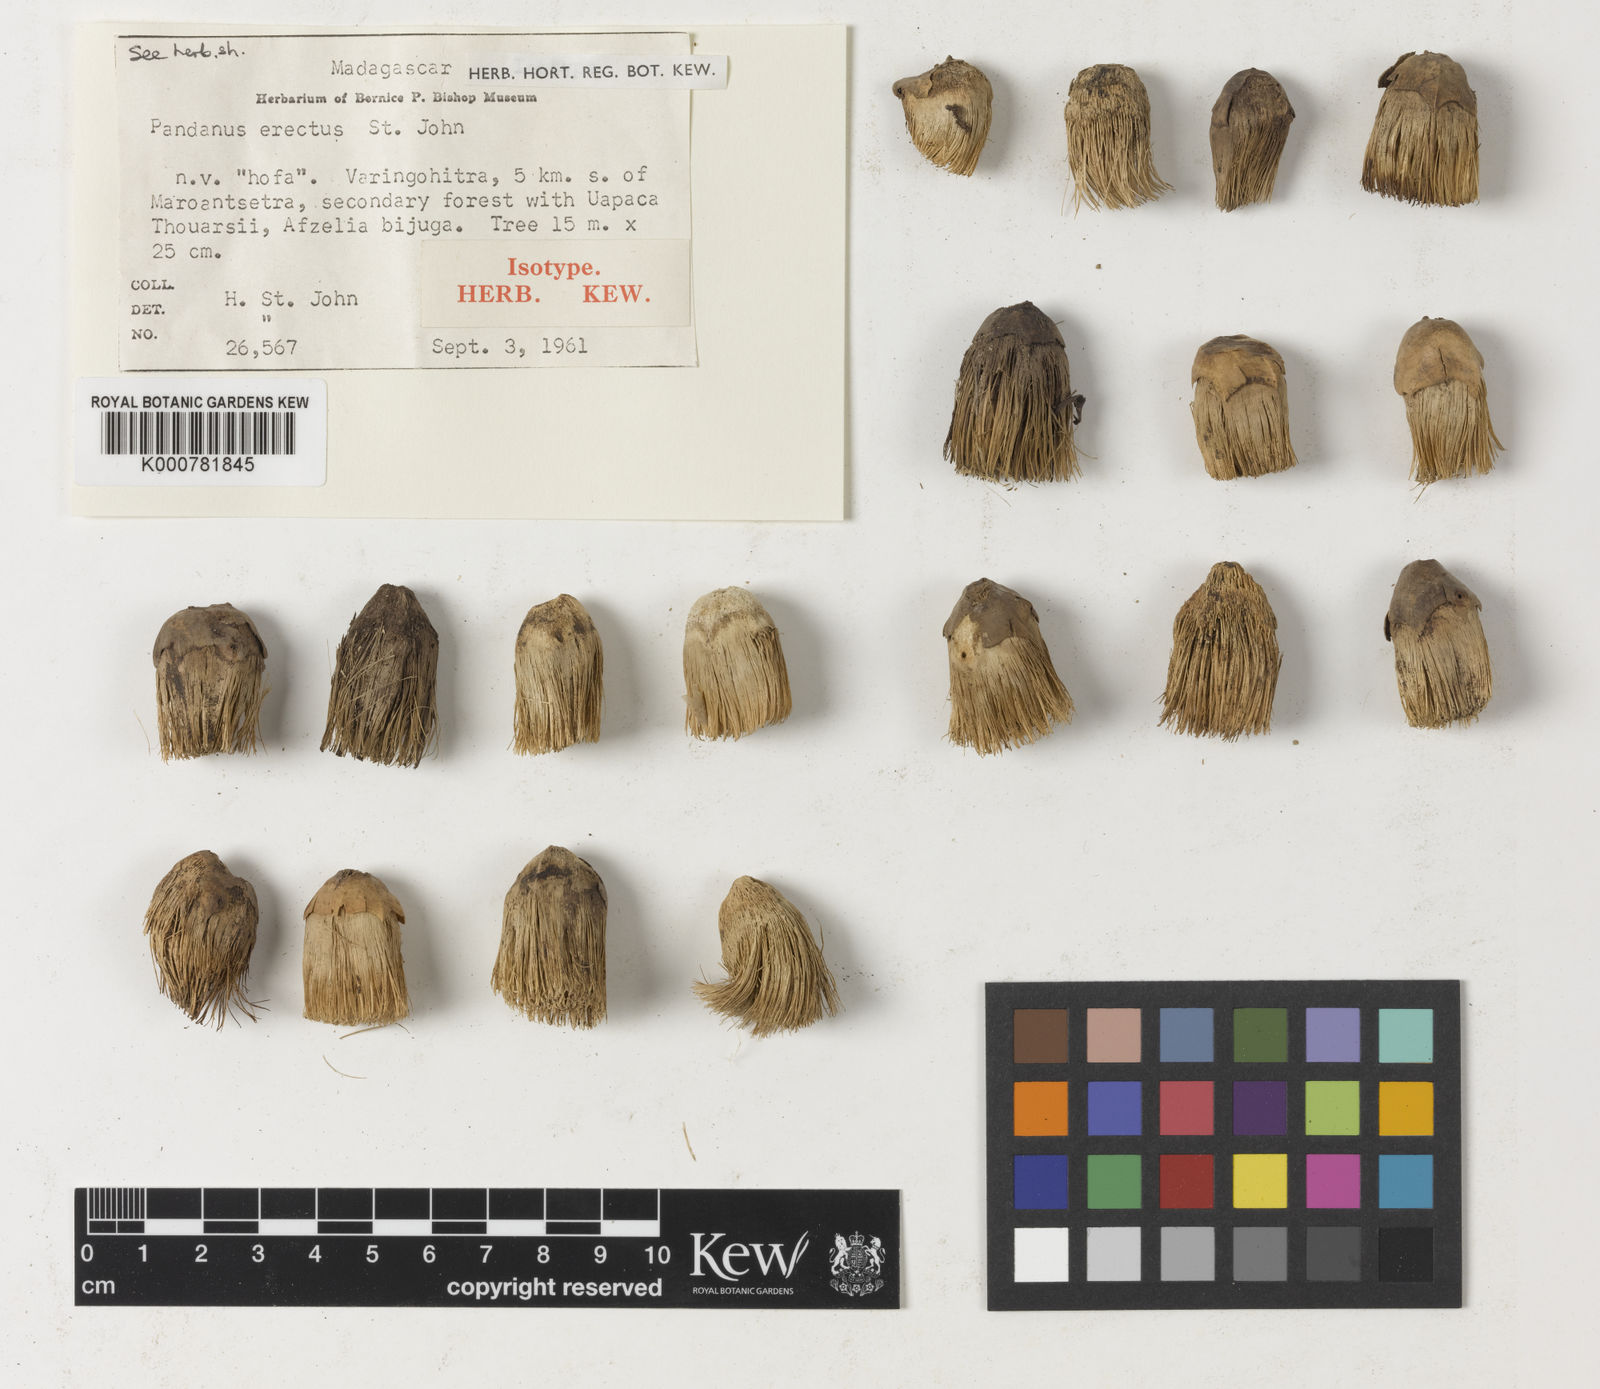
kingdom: Plantae
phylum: Tracheophyta
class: Liliopsida
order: Pandanales
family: Pandanaceae
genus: Pandanus
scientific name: Pandanus concretus
